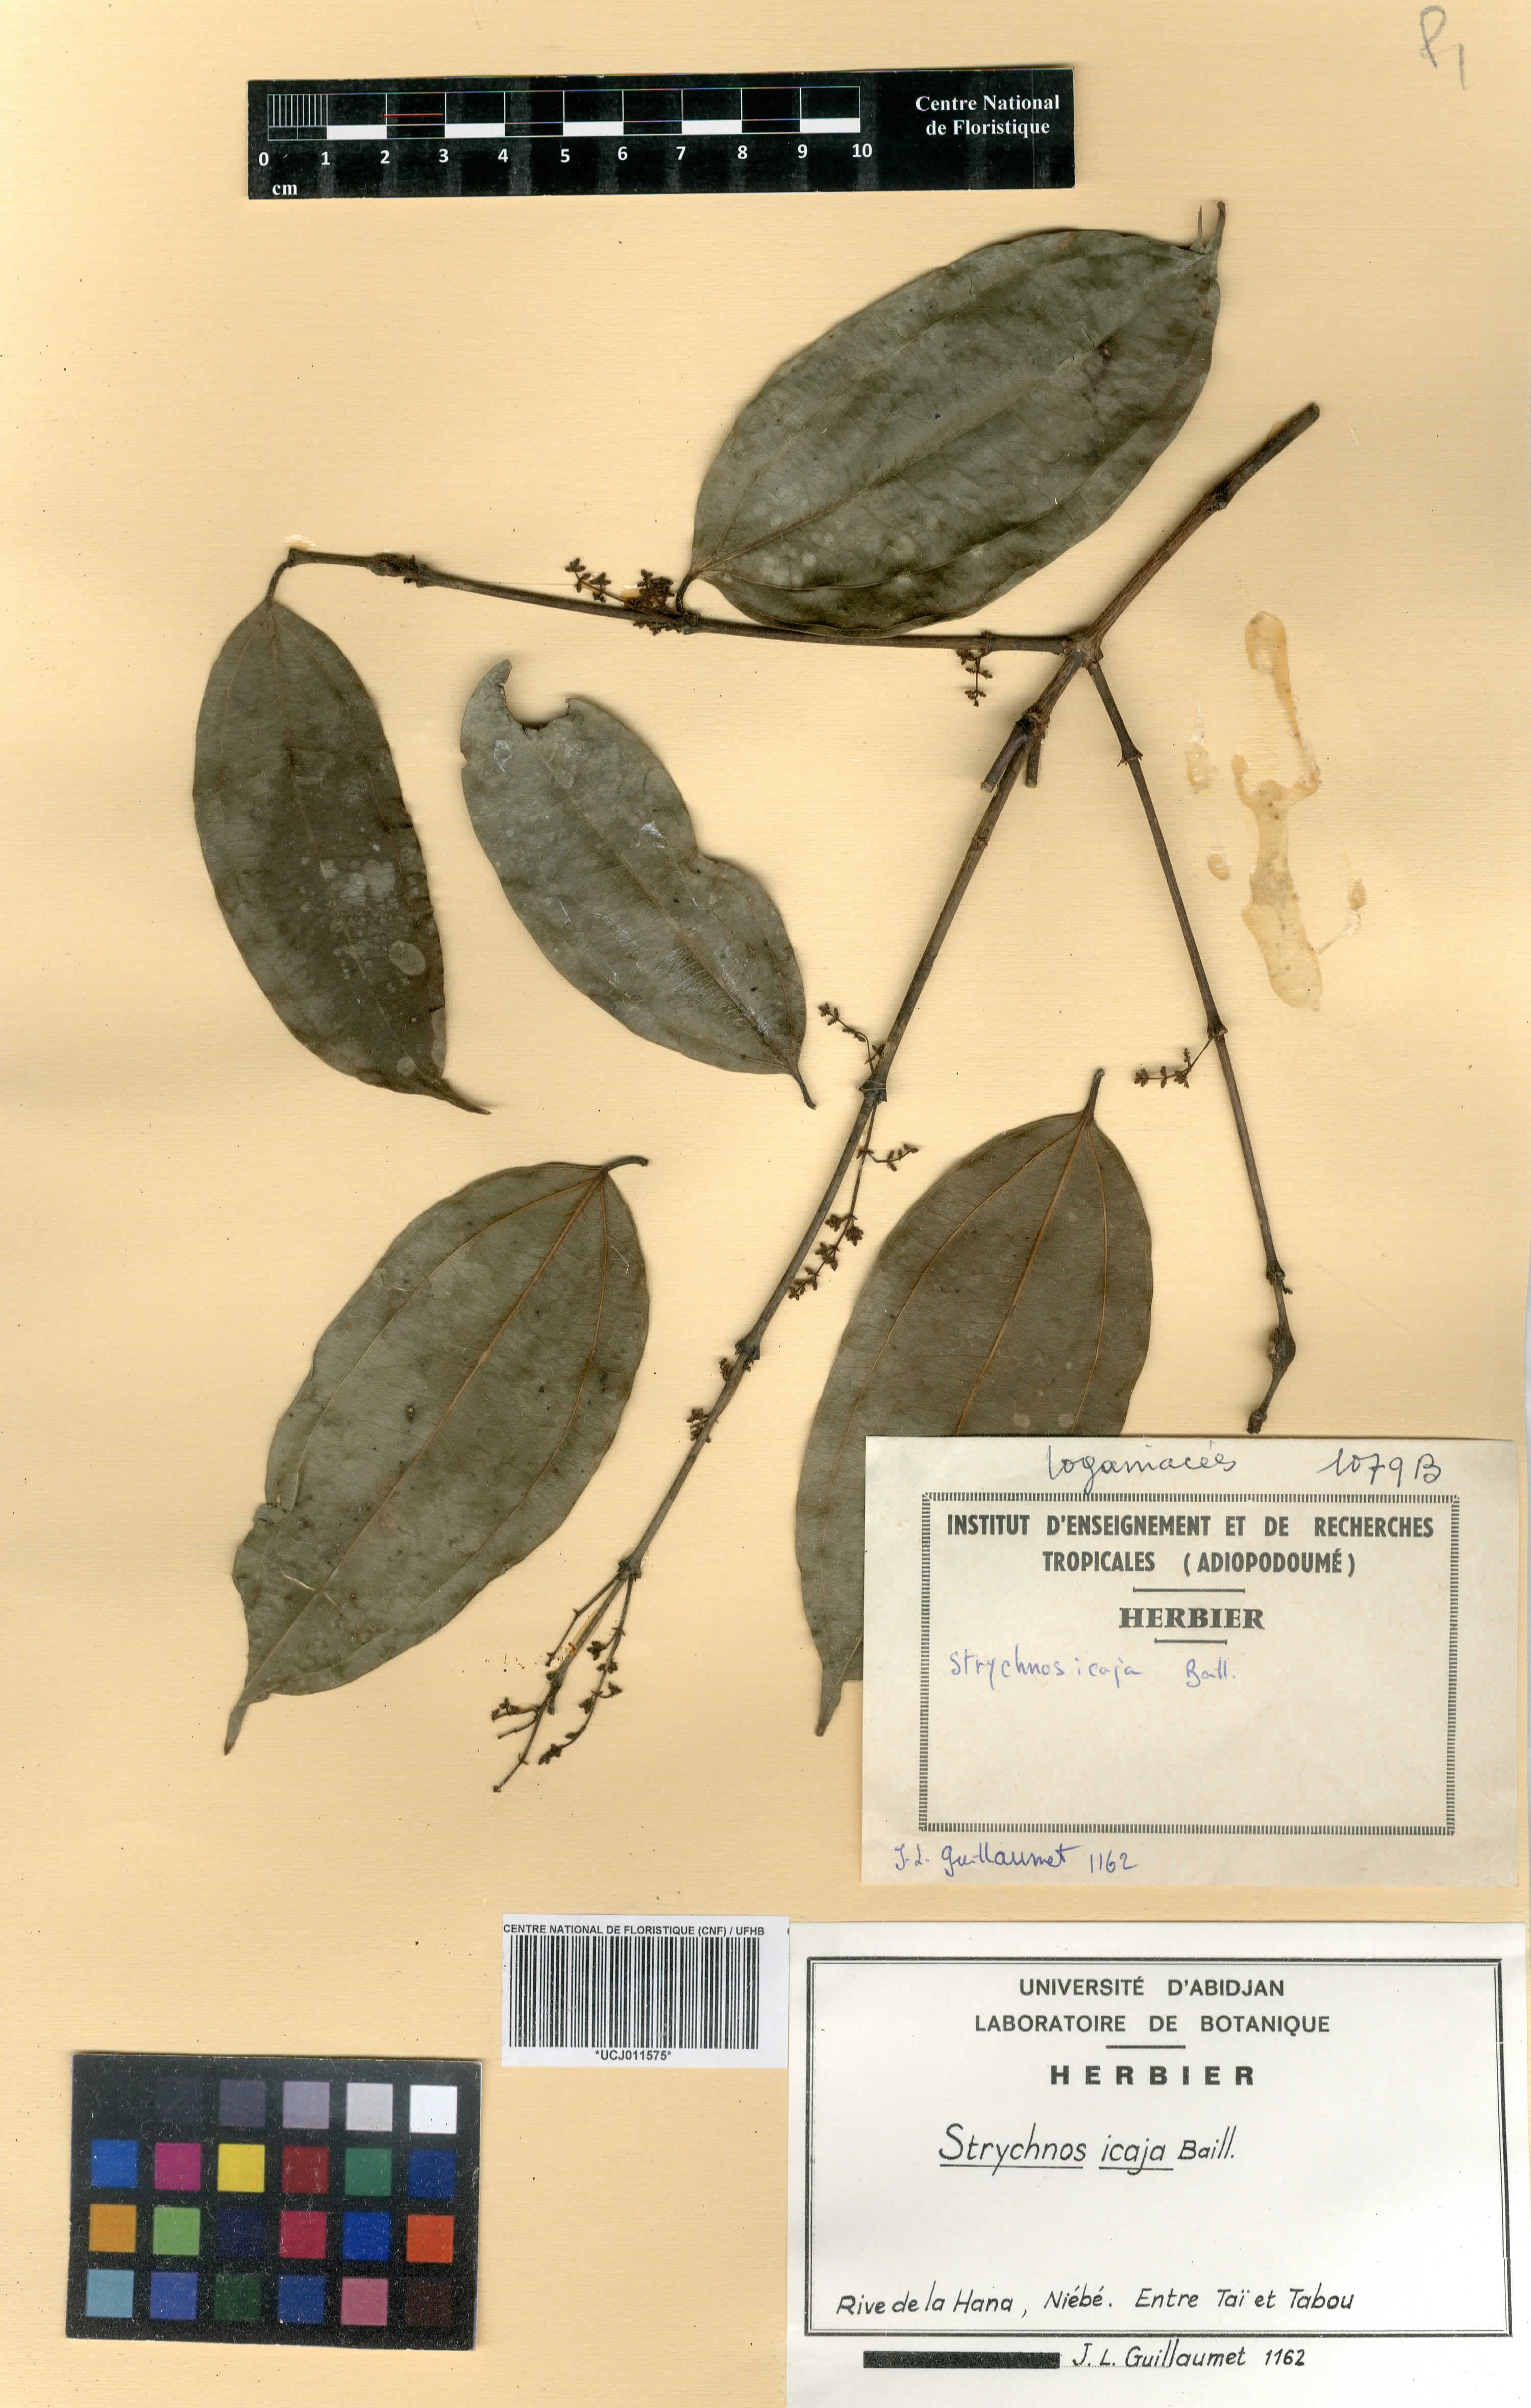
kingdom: Plantae
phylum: Tracheophyta
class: Magnoliopsida
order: Gentianales
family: Loganiaceae
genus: Strychnos
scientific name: Strychnos icaja
